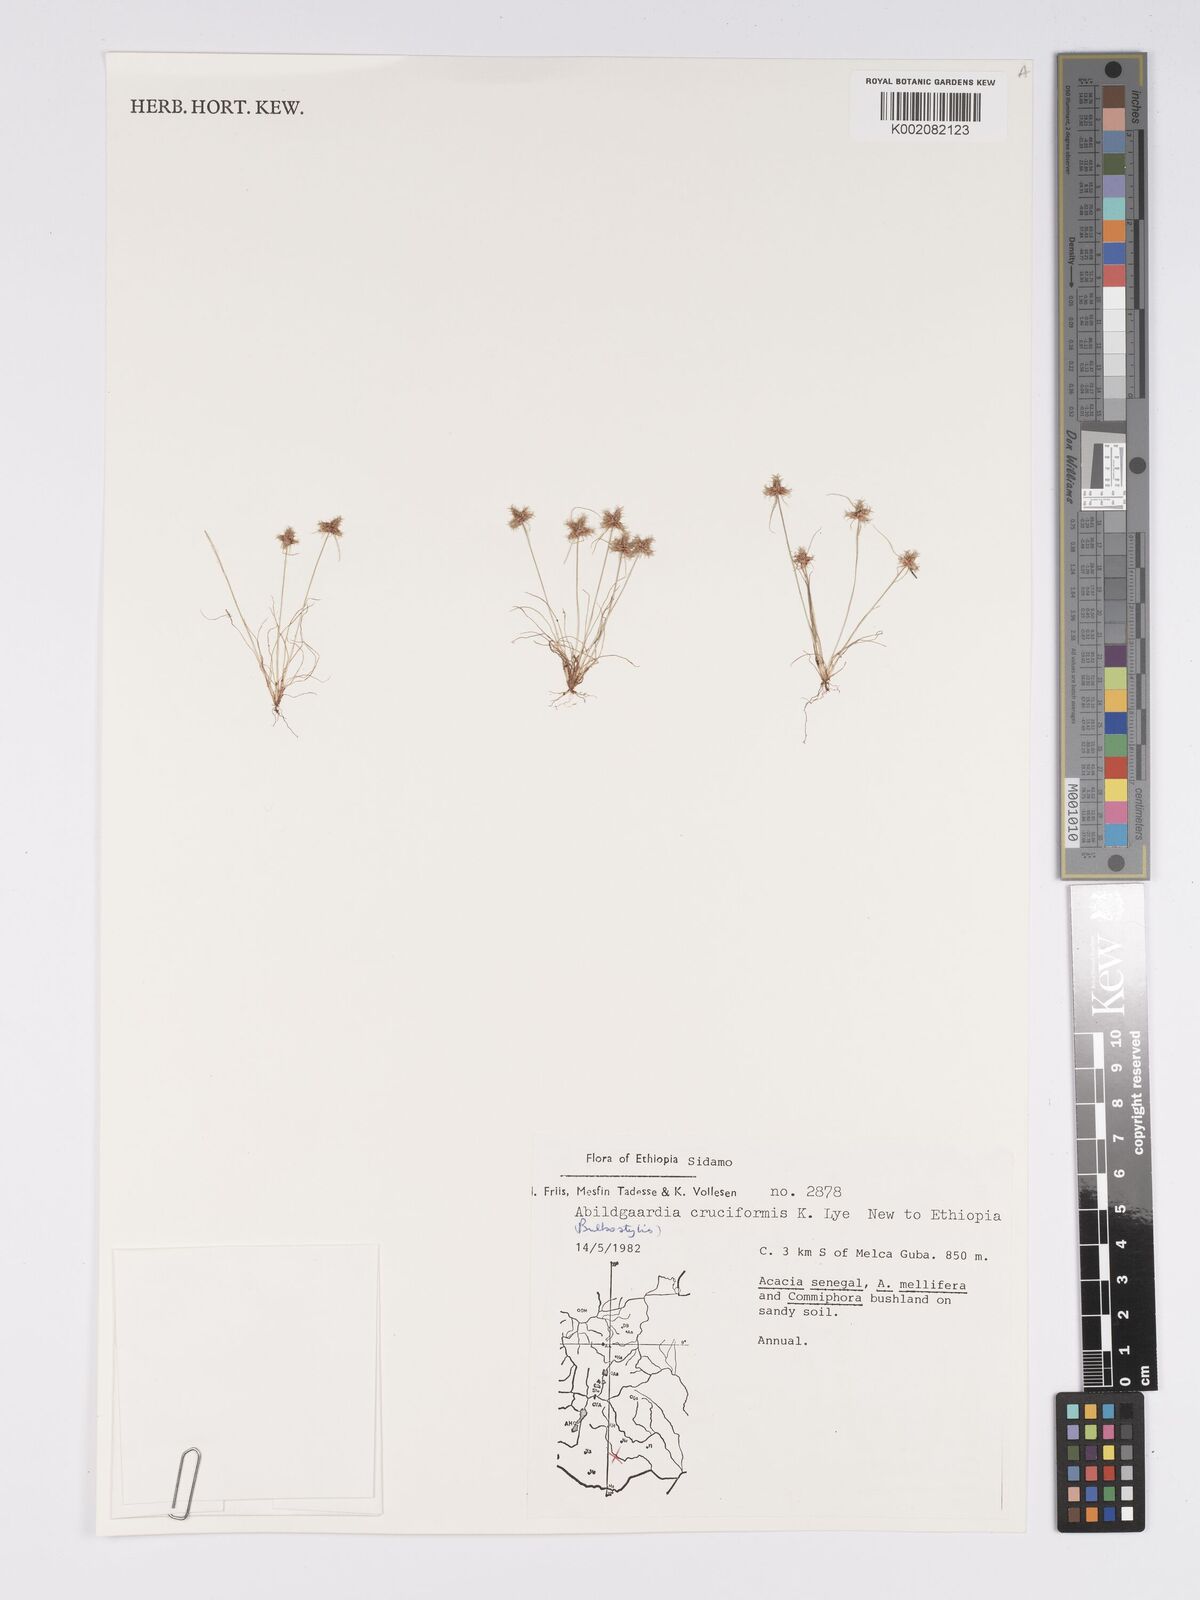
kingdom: Plantae
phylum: Tracheophyta
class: Liliopsida
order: Poales
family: Cyperaceae
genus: Bulbostylis
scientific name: Bulbostylis cruciformis
